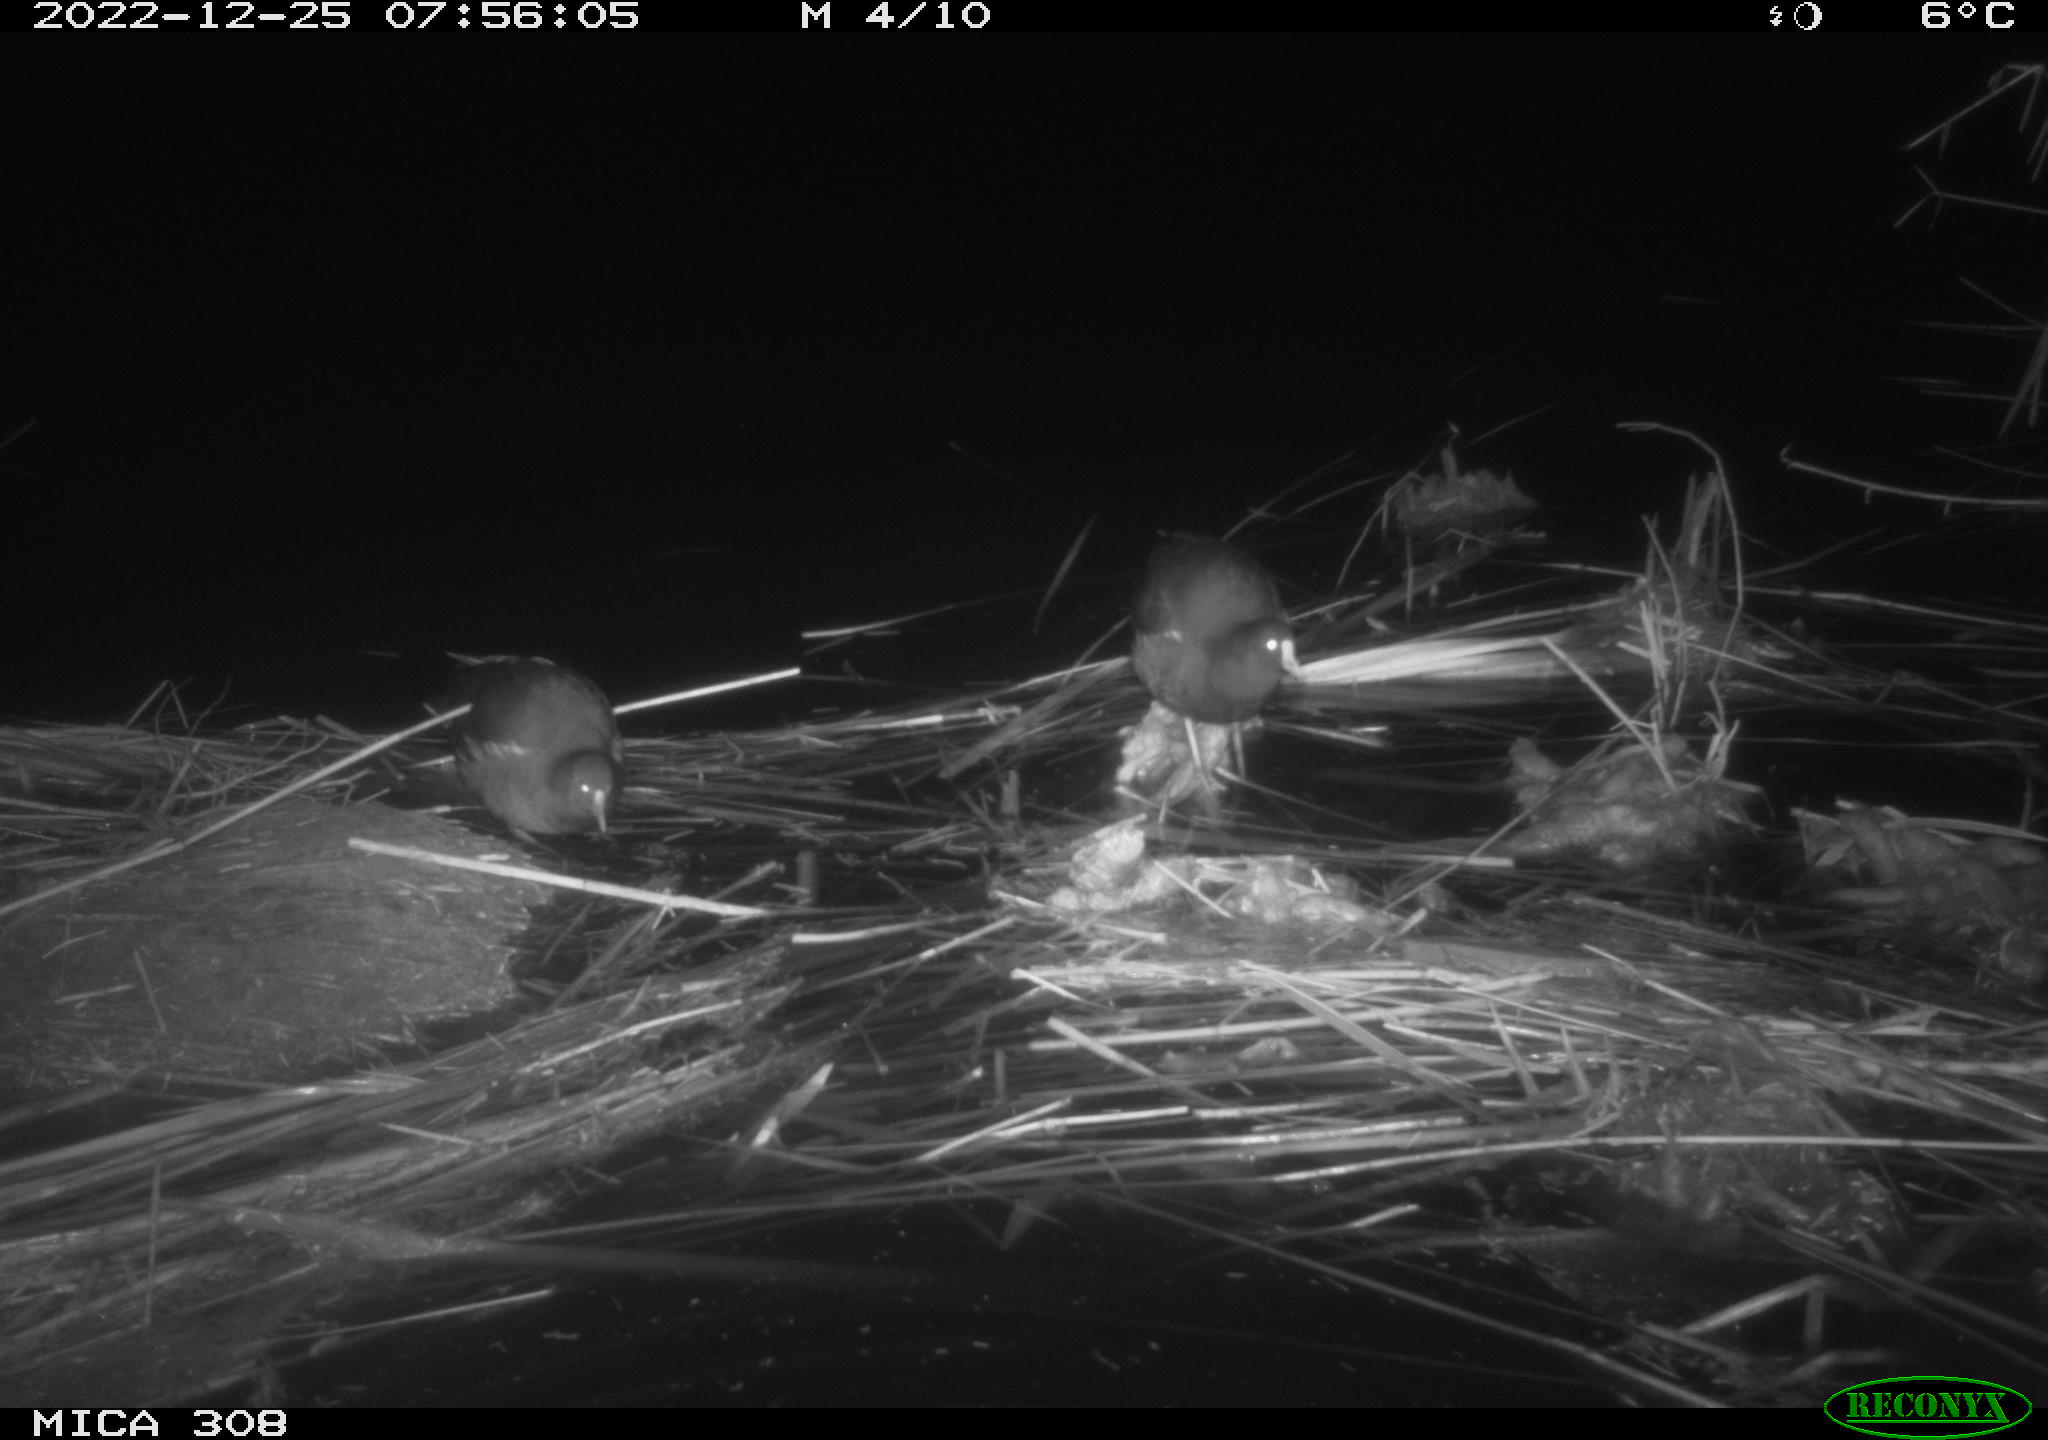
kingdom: Animalia
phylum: Chordata
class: Mammalia
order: Rodentia
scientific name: Rodentia
